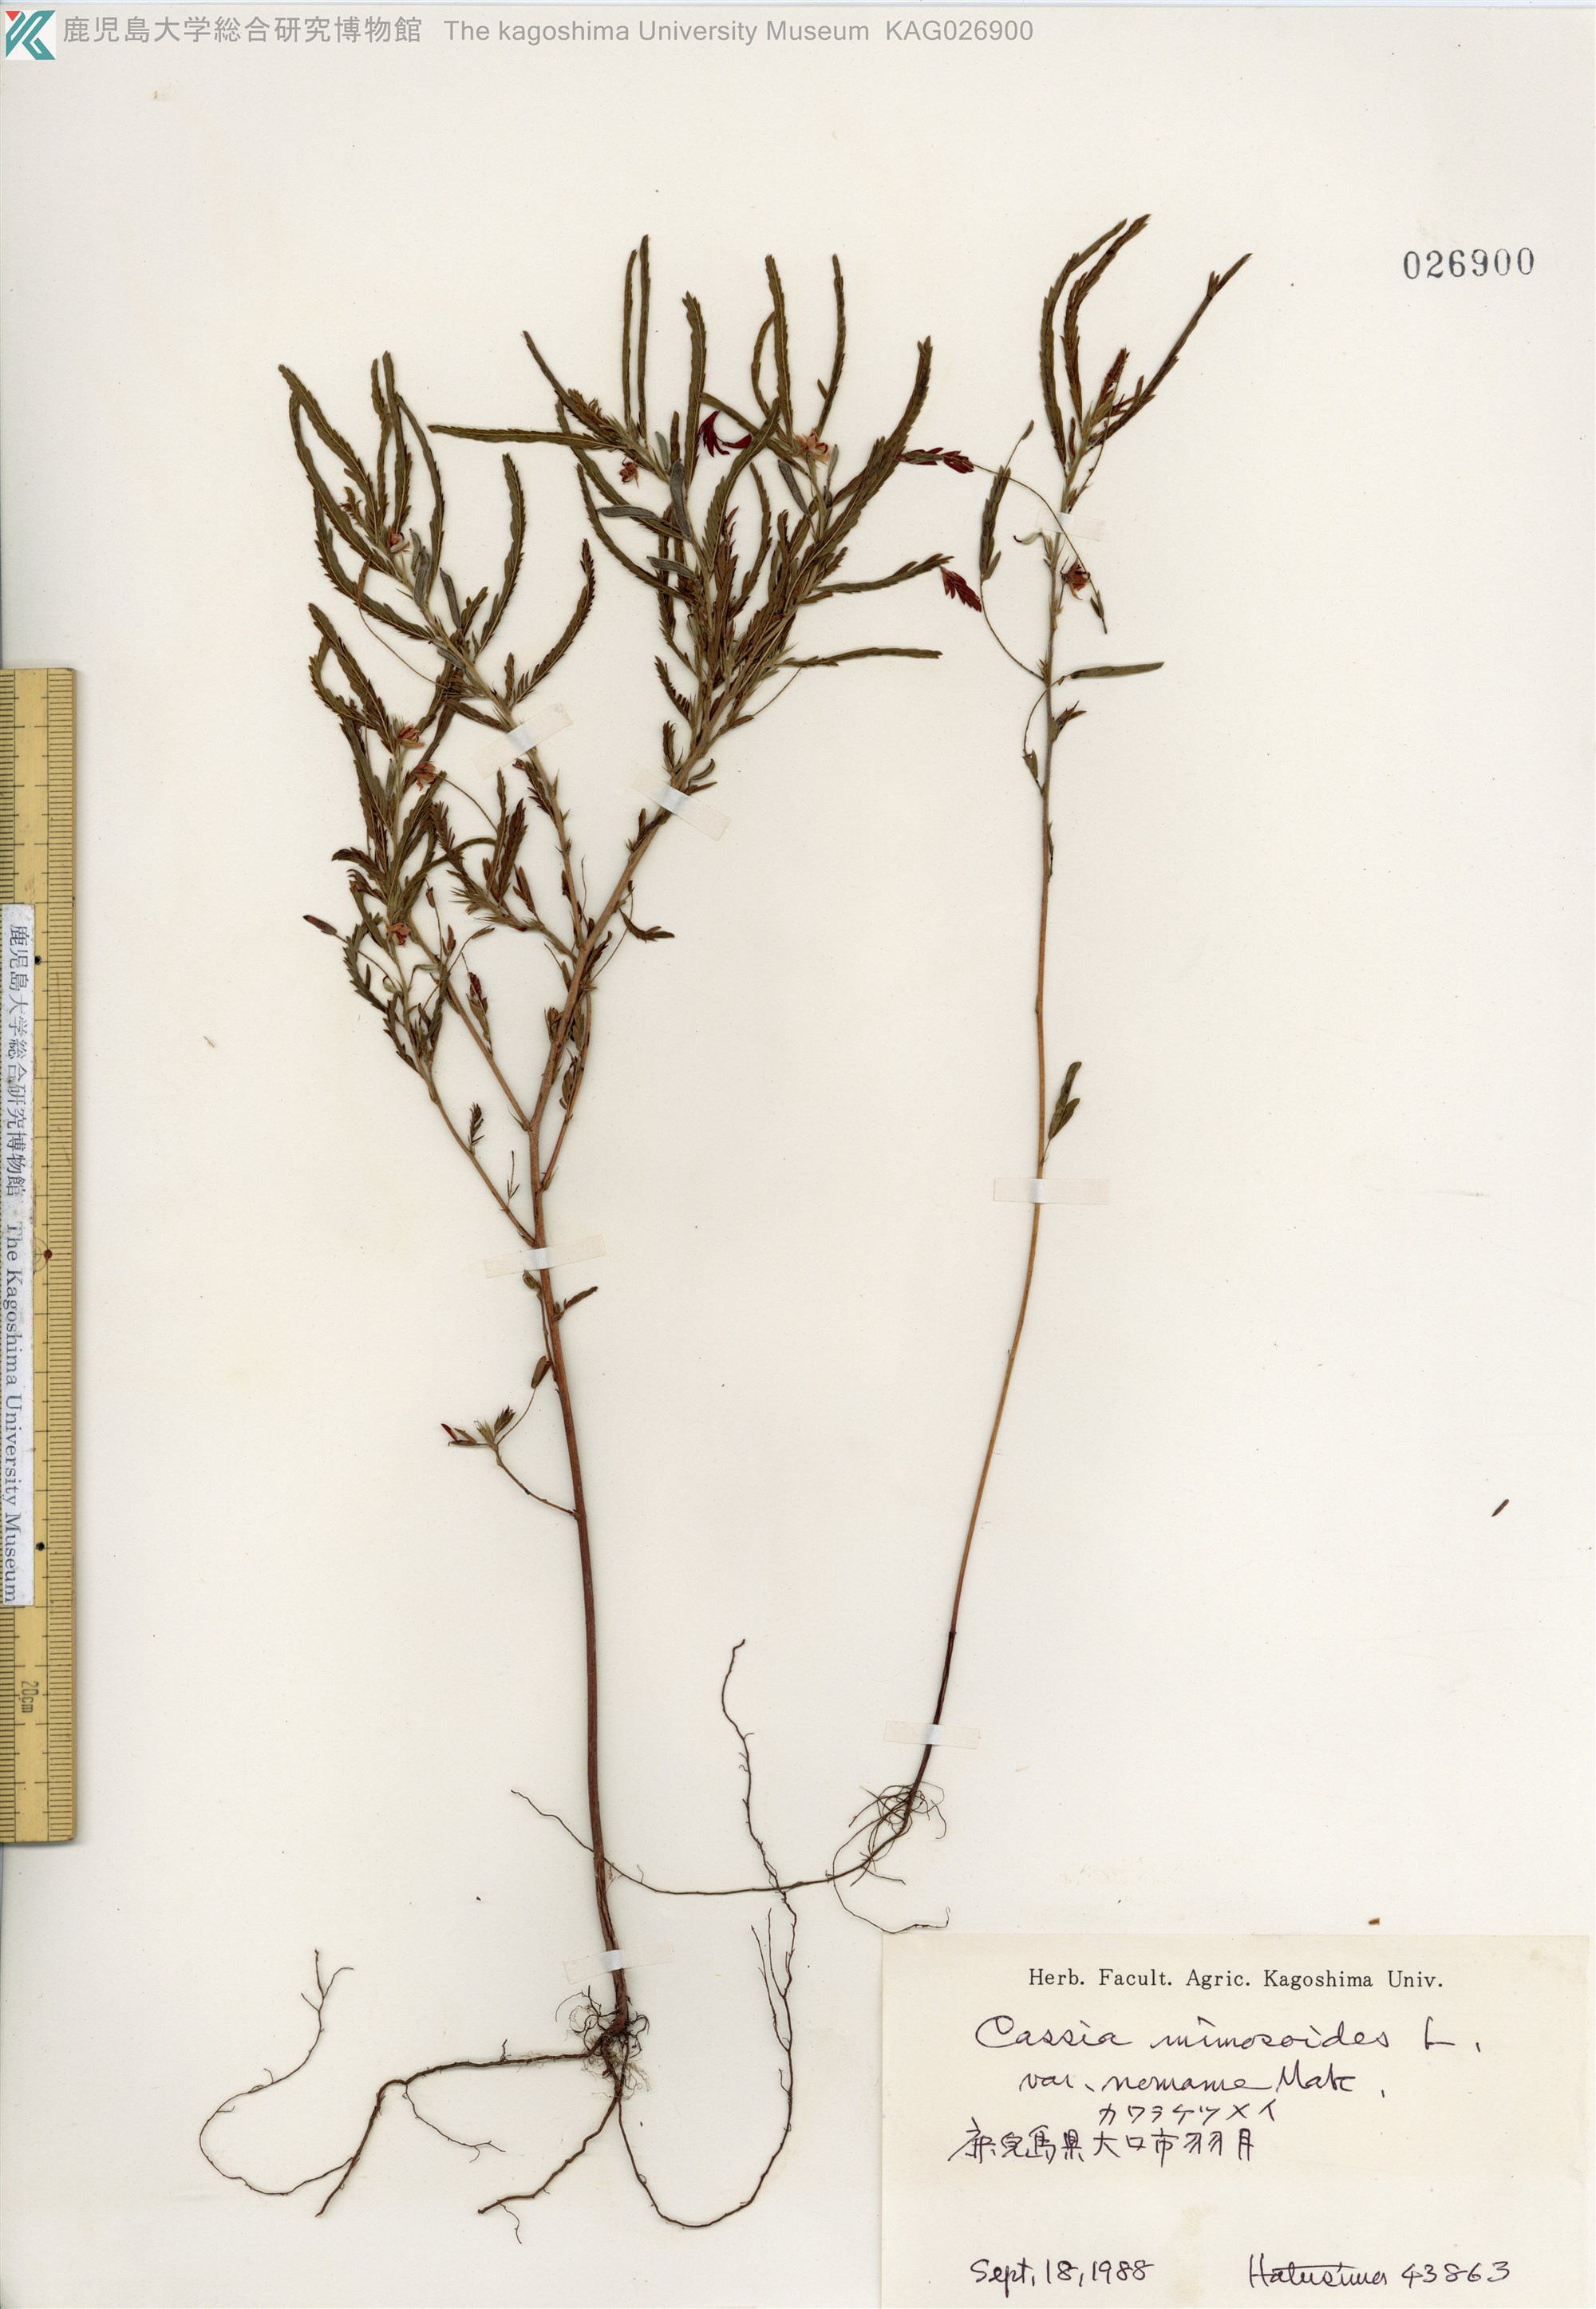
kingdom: Plantae
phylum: Tracheophyta
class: Magnoliopsida
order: Fabales
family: Fabaceae
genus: Chamaecrista
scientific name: Chamaecrista nomame
